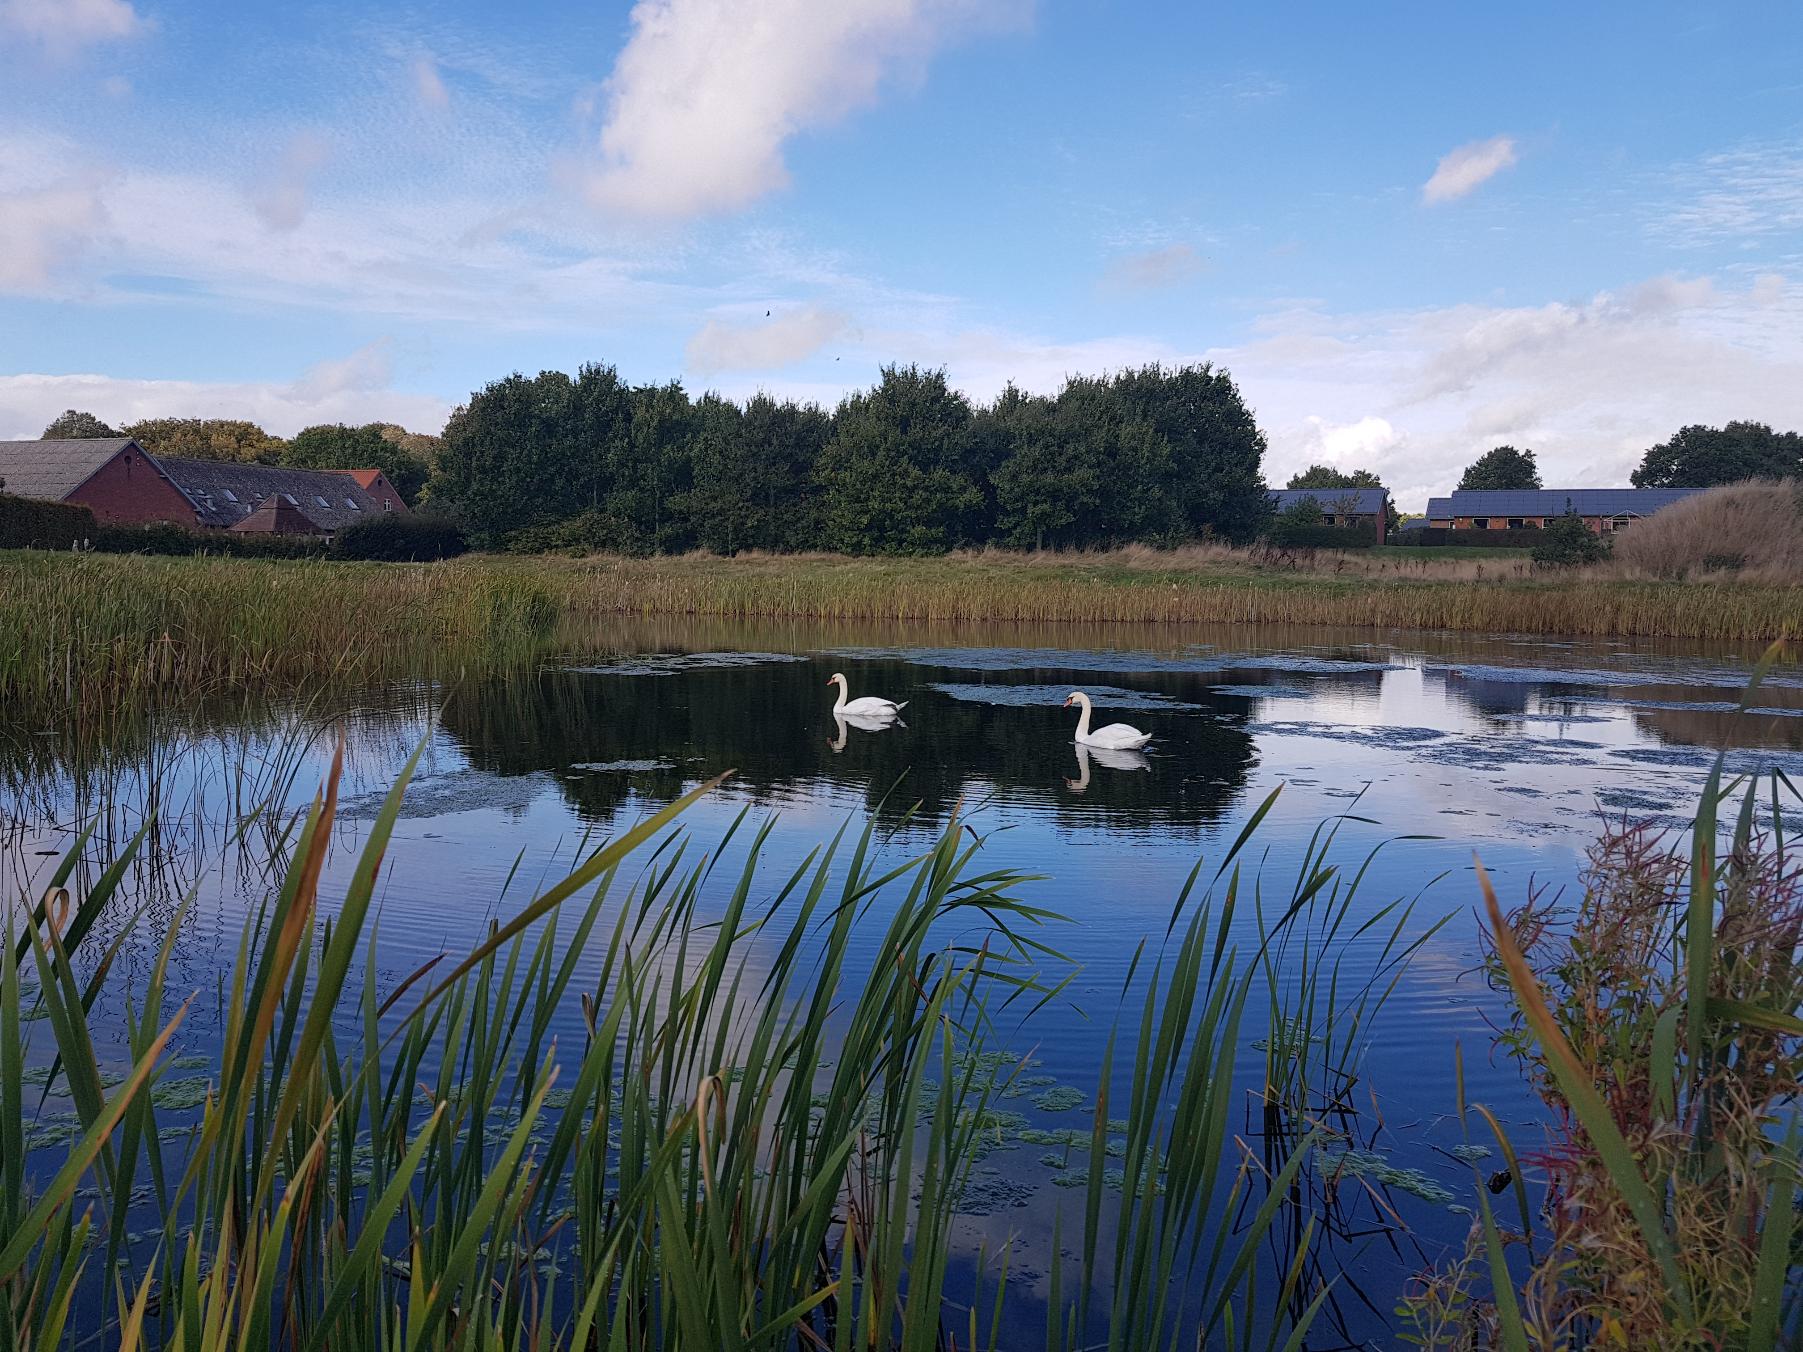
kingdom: Animalia
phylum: Chordata
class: Aves
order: Anseriformes
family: Anatidae
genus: Cygnus
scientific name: Cygnus olor
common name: Knopsvane
